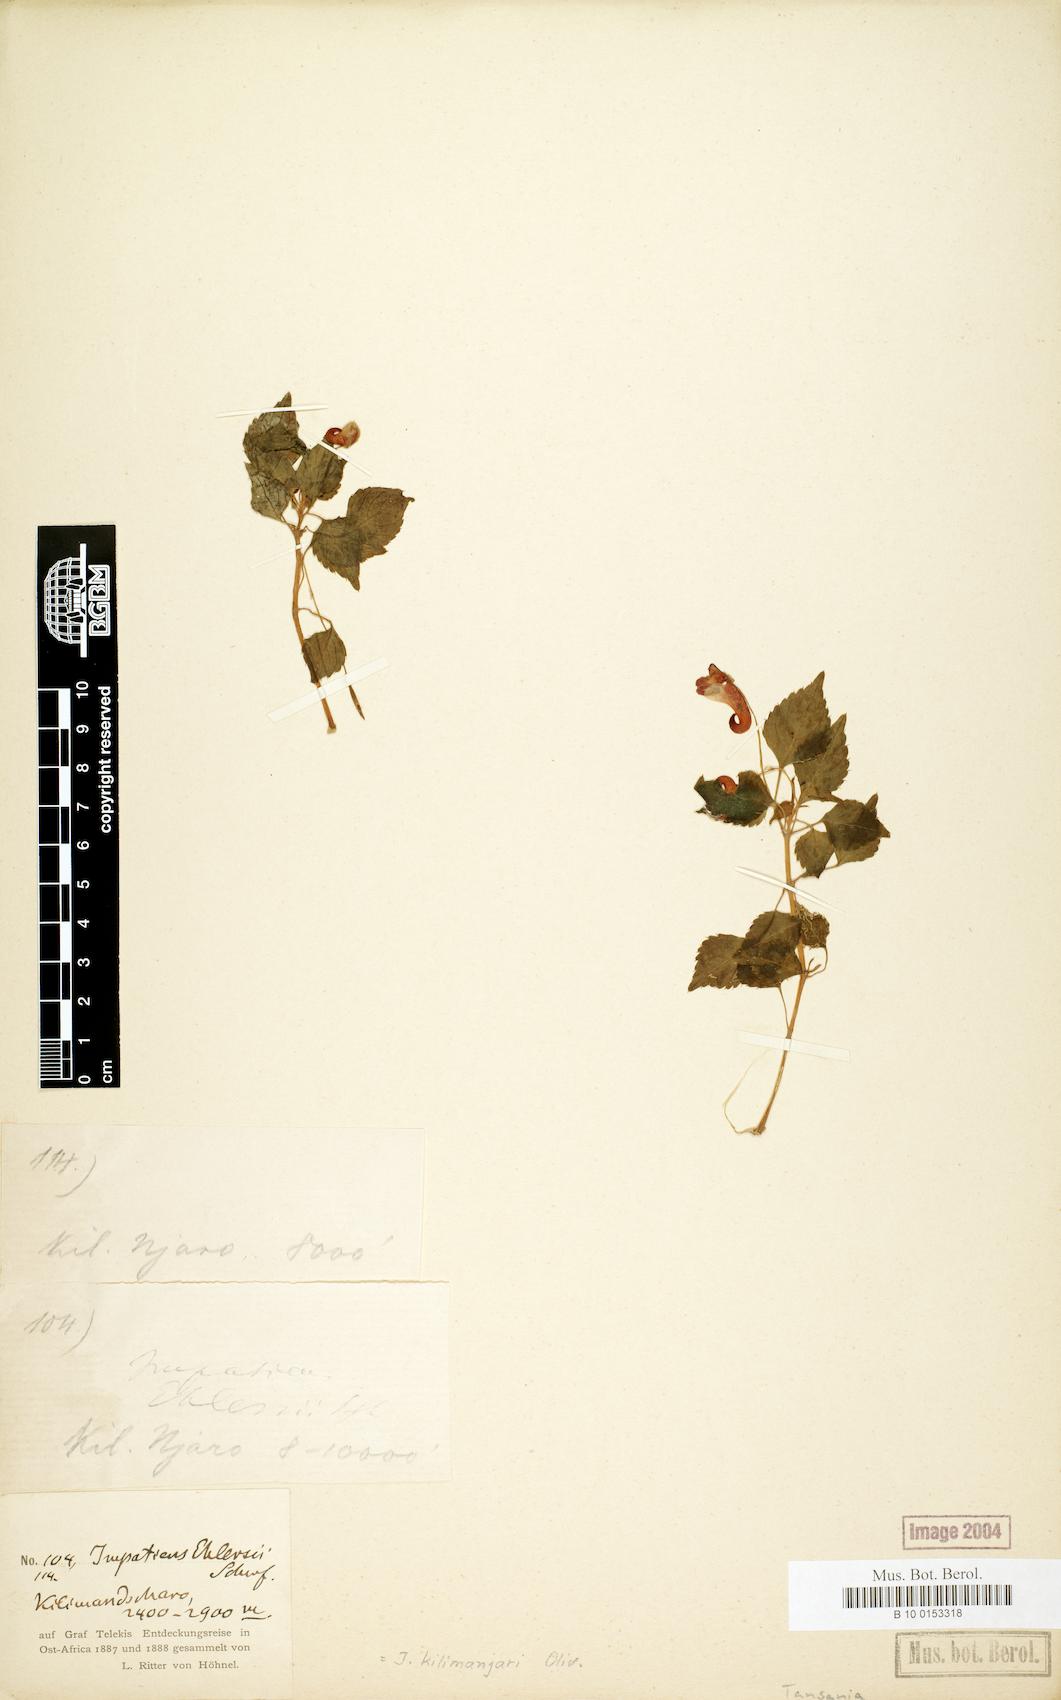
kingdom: Plantae
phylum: Tracheophyta
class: Magnoliopsida
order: Ericales
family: Balsaminaceae
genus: Impatiens
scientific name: Impatiens kilimanjari
